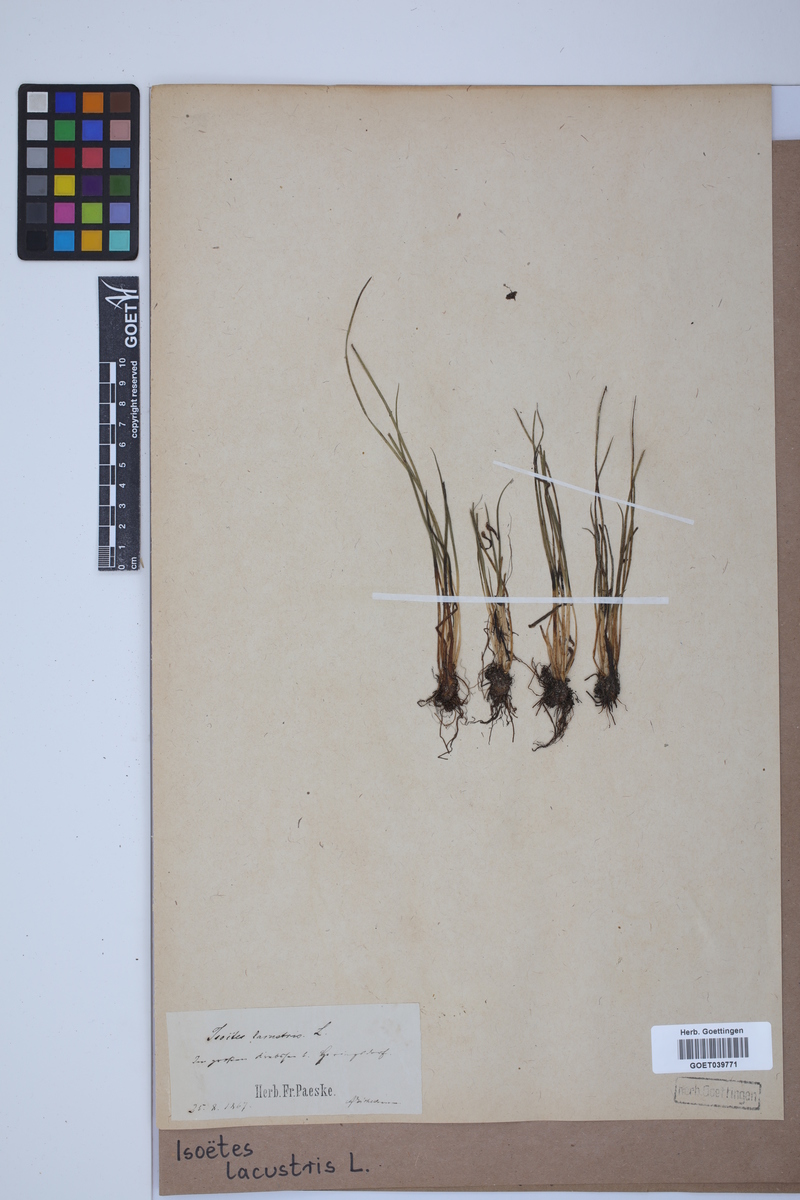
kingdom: Plantae
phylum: Tracheophyta
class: Lycopodiopsida
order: Isoetales
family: Isoetaceae
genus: Isoetes
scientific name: Isoetes lacustris
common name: Common quillwort
